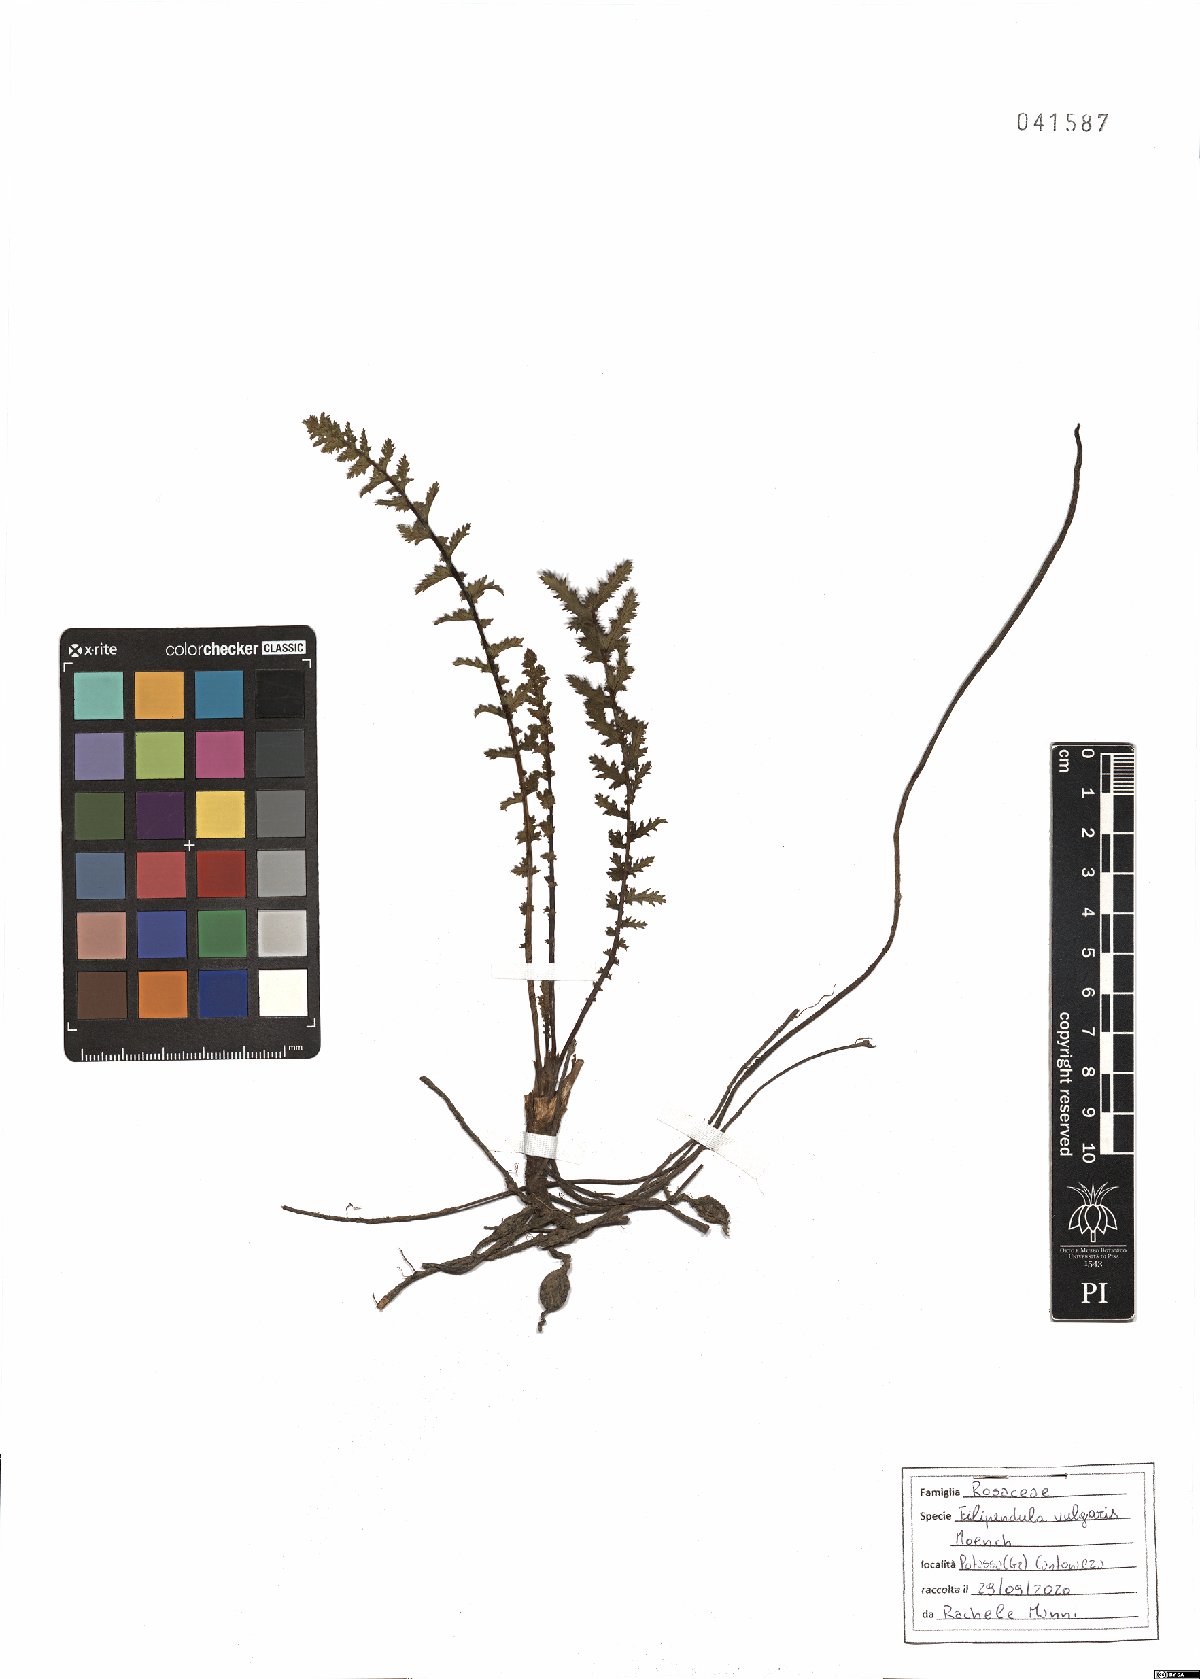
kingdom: Plantae
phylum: Tracheophyta
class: Magnoliopsida
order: Rosales
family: Rosaceae
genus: Filipendula
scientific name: Filipendula vulgaris
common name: Dropwort
